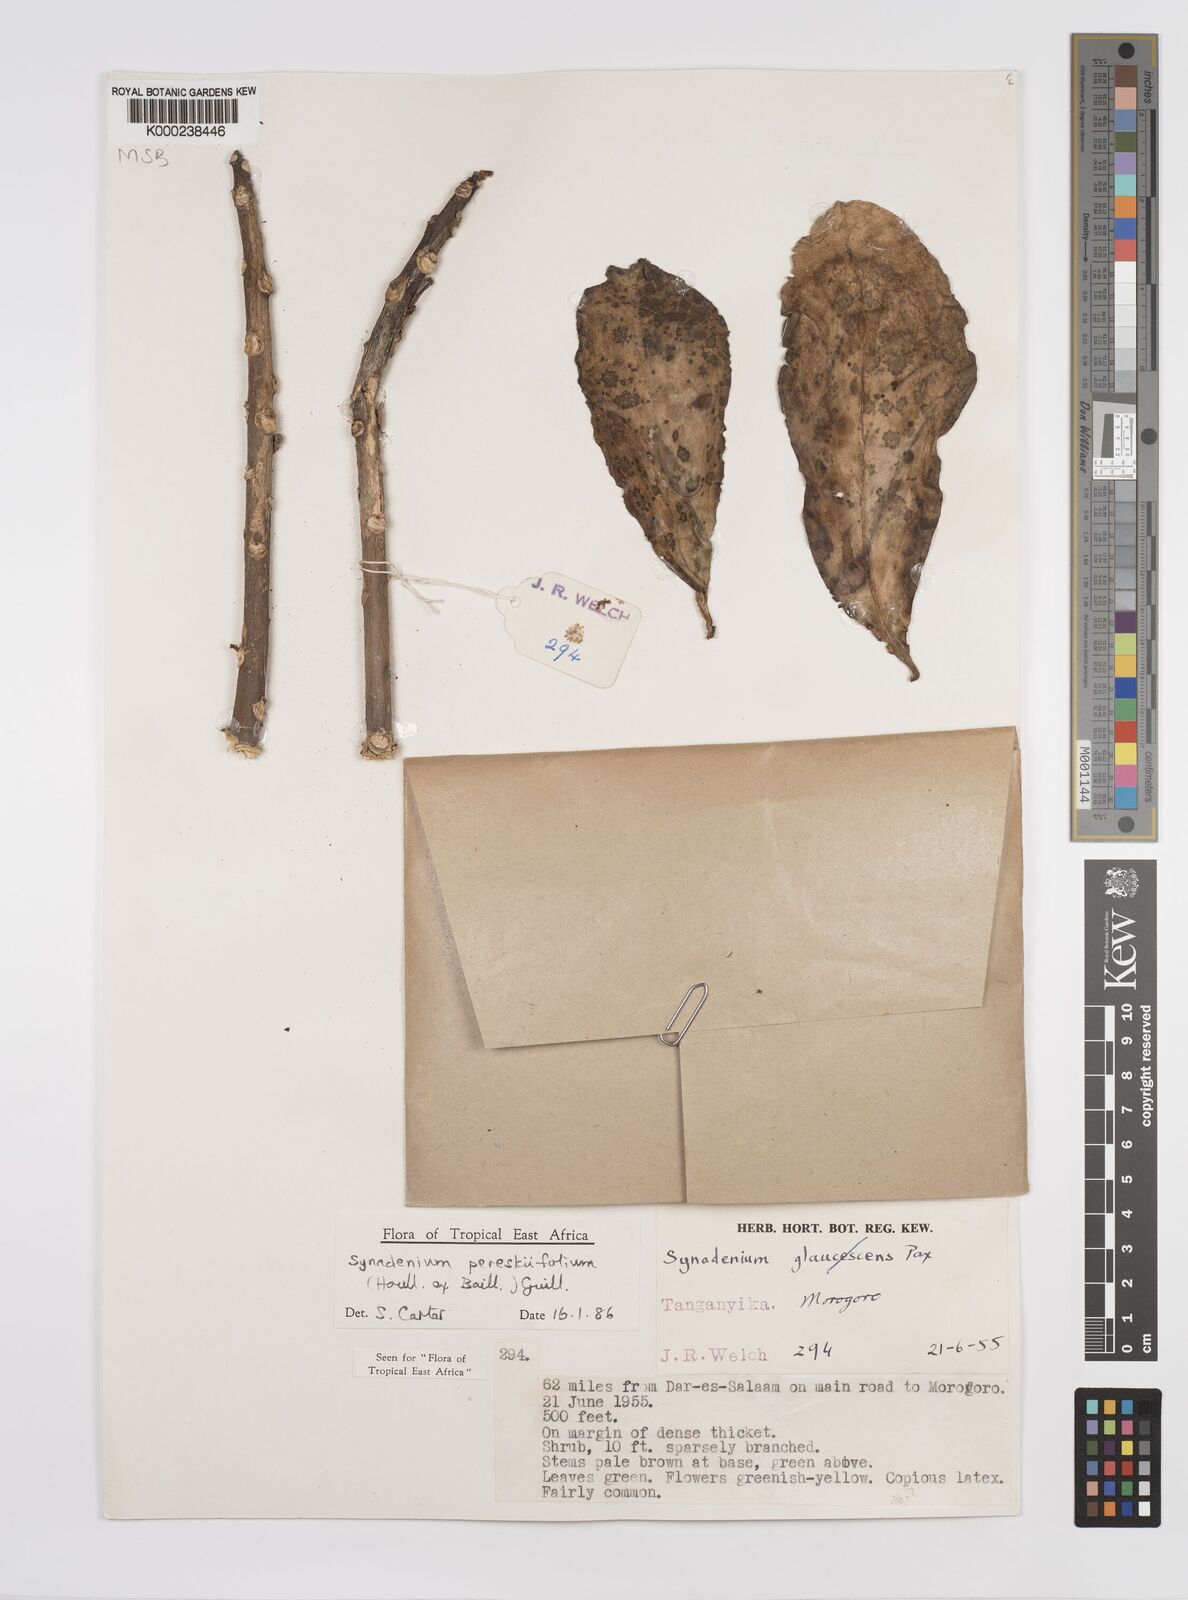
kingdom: Plantae
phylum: Tracheophyta
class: Magnoliopsida
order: Malpighiales
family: Euphorbiaceae
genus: Euphorbia
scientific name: Euphorbia pereskiifolia
